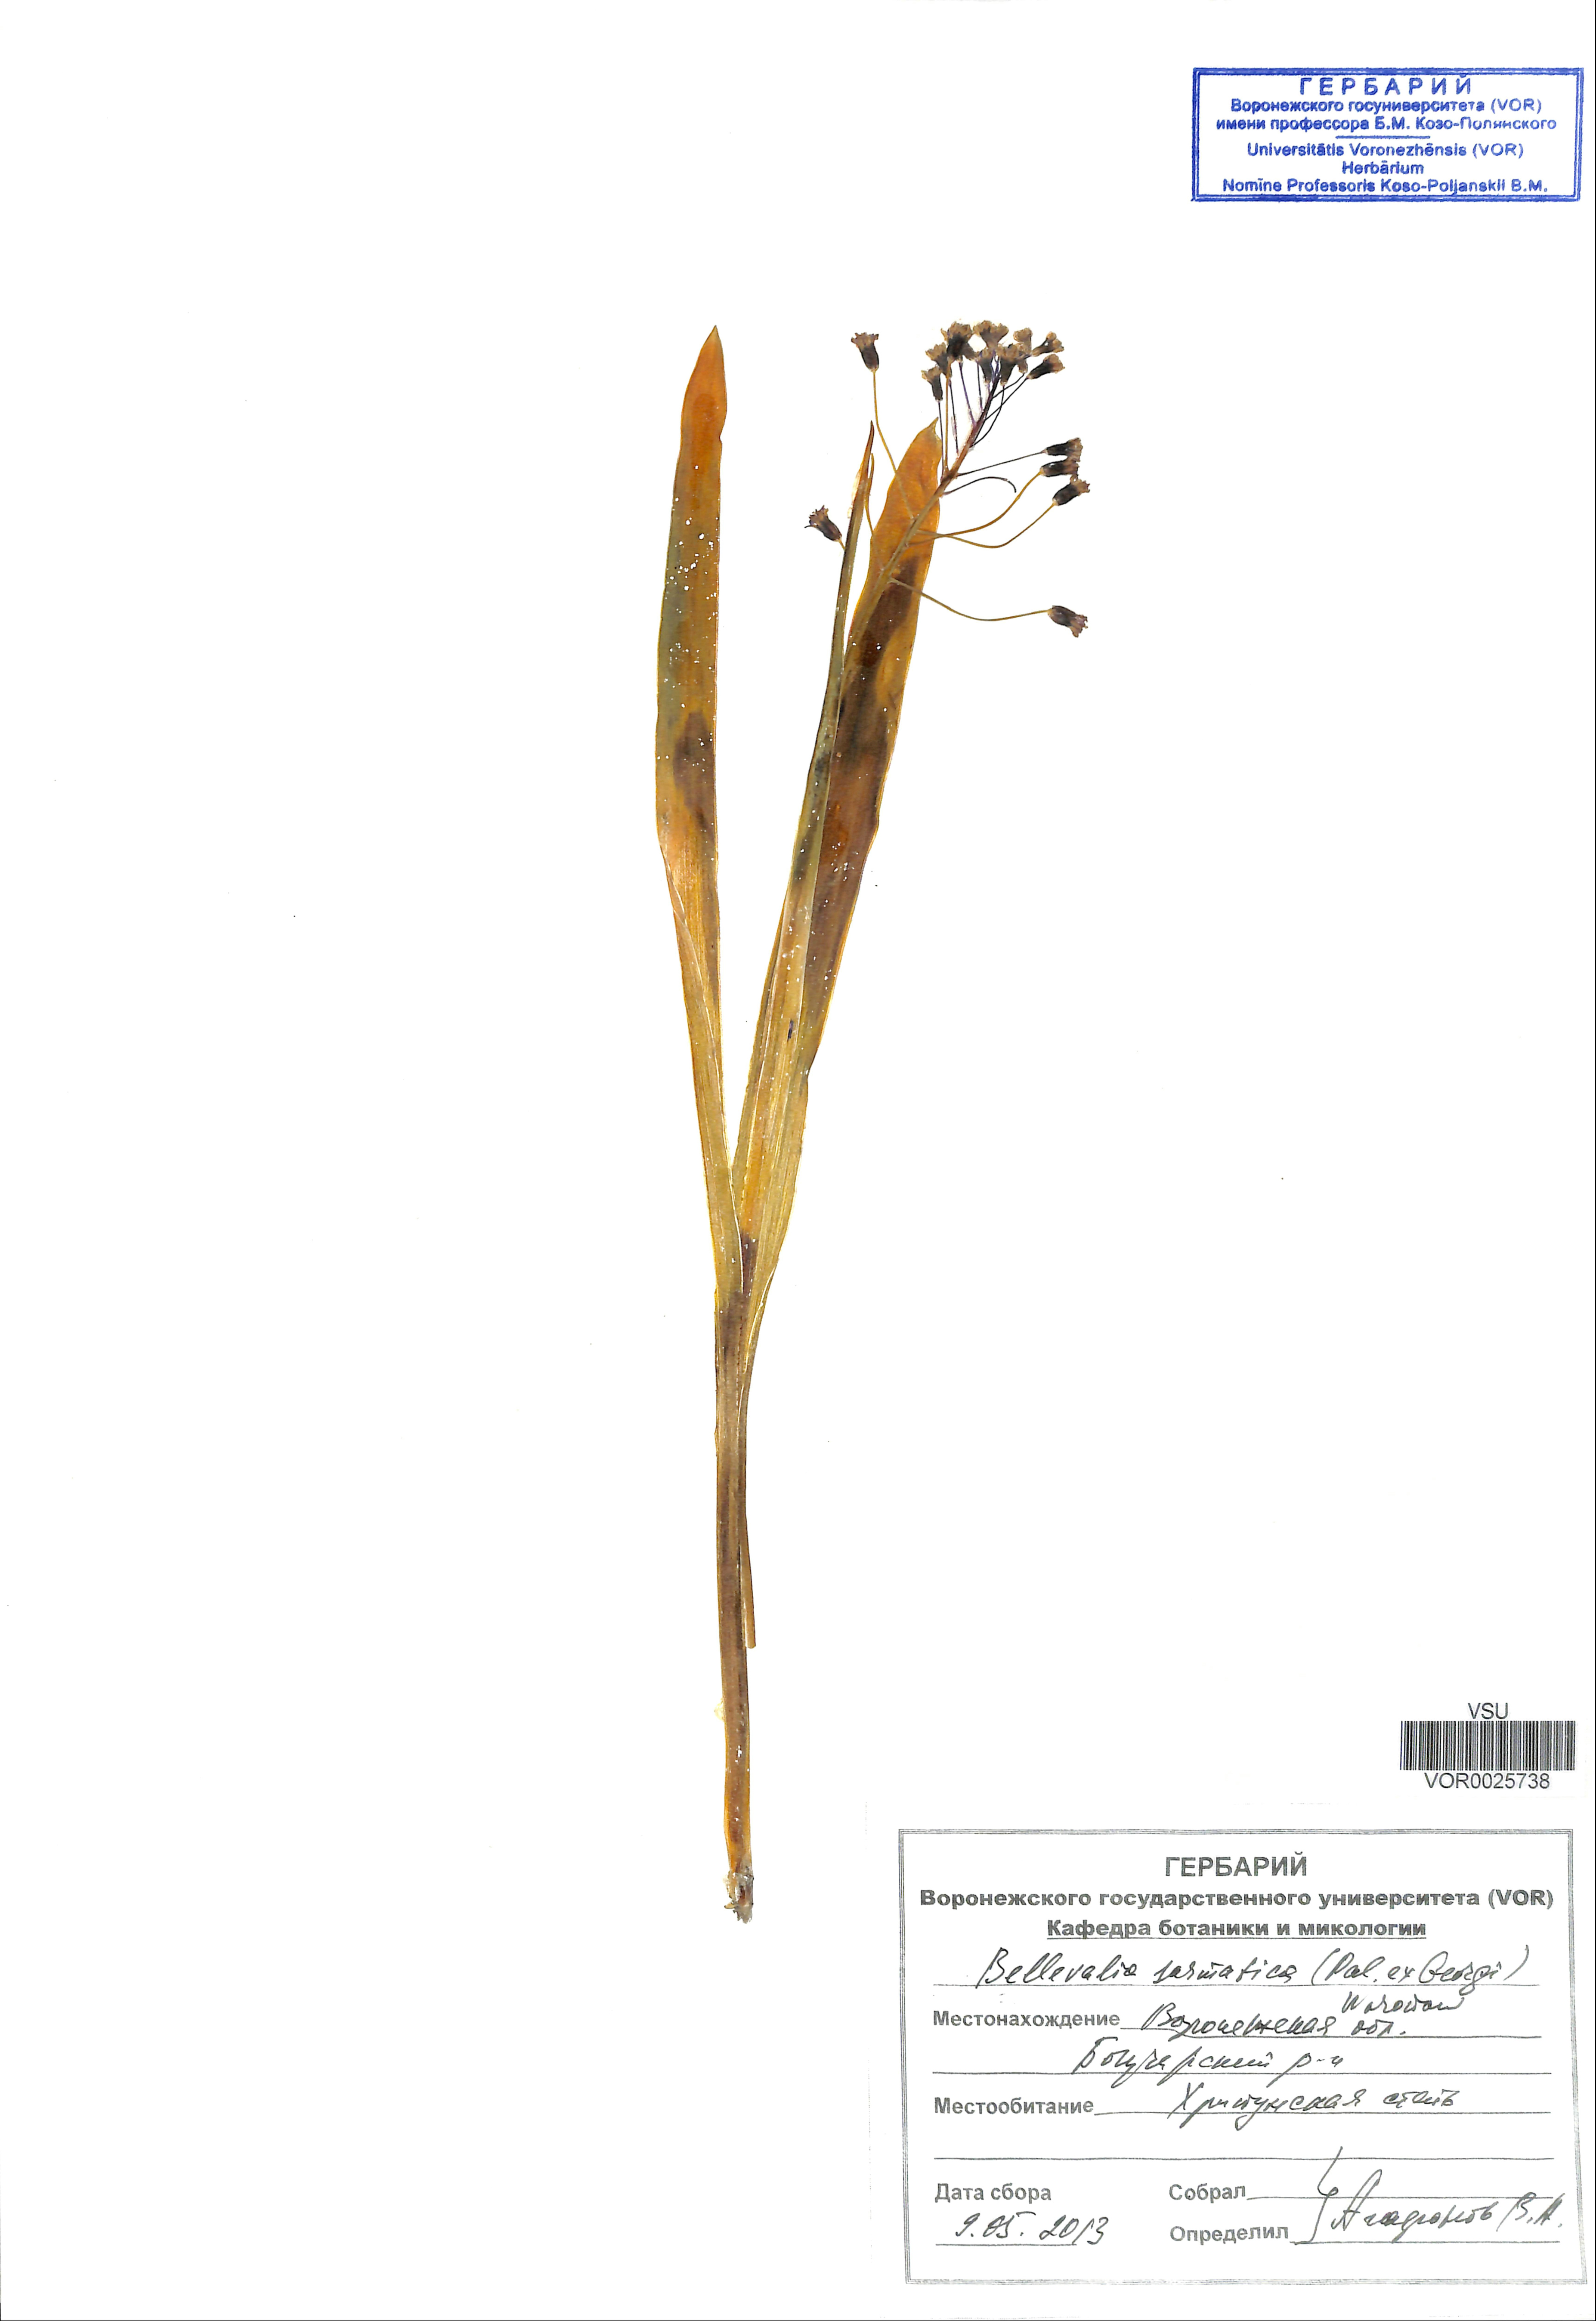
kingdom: Plantae
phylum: Tracheophyta
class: Liliopsida
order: Asparagales
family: Asparagaceae
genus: Bellevalia
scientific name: Bellevalia speciosa
